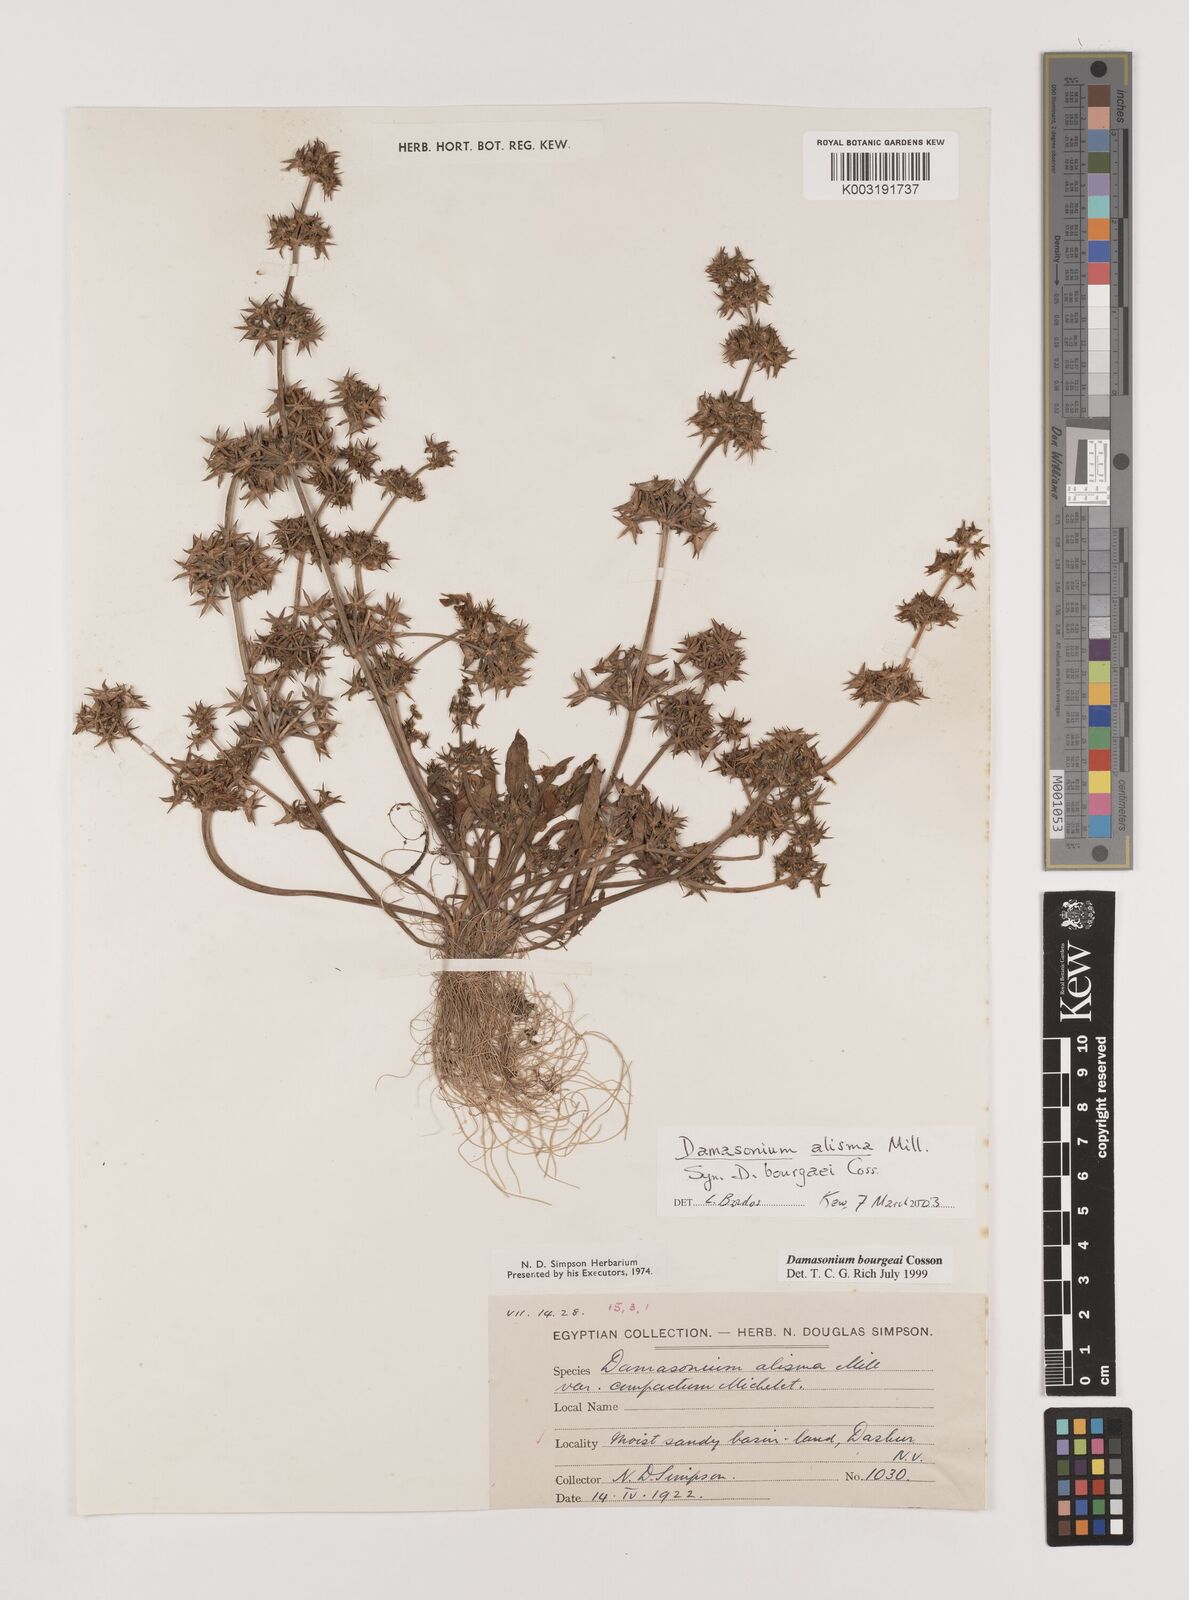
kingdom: Plantae
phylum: Tracheophyta
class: Liliopsida
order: Alismatales
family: Alismataceae
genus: Damasonium
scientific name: Damasonium bourgaei
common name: Starfruit
